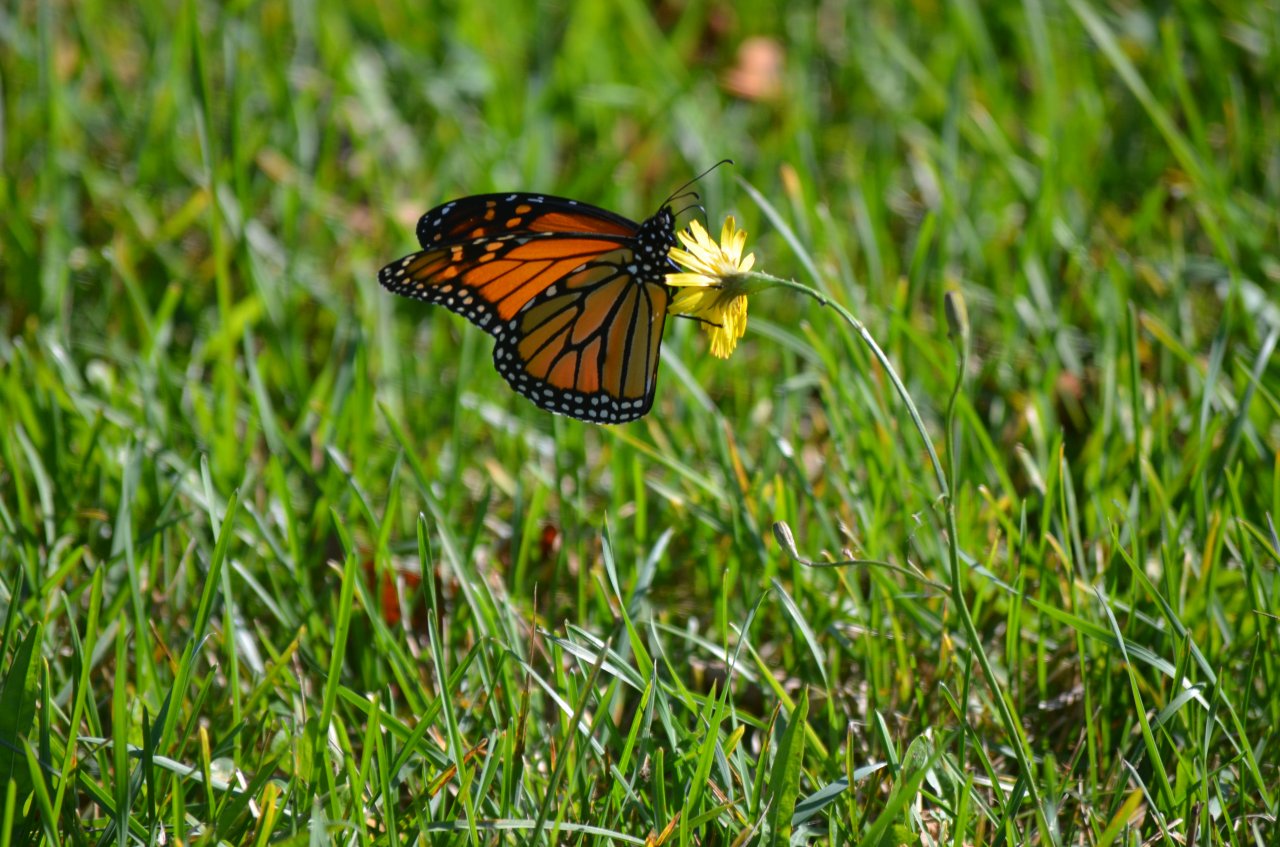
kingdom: Animalia
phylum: Arthropoda
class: Insecta
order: Lepidoptera
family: Nymphalidae
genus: Danaus
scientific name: Danaus plexippus
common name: Monarch
